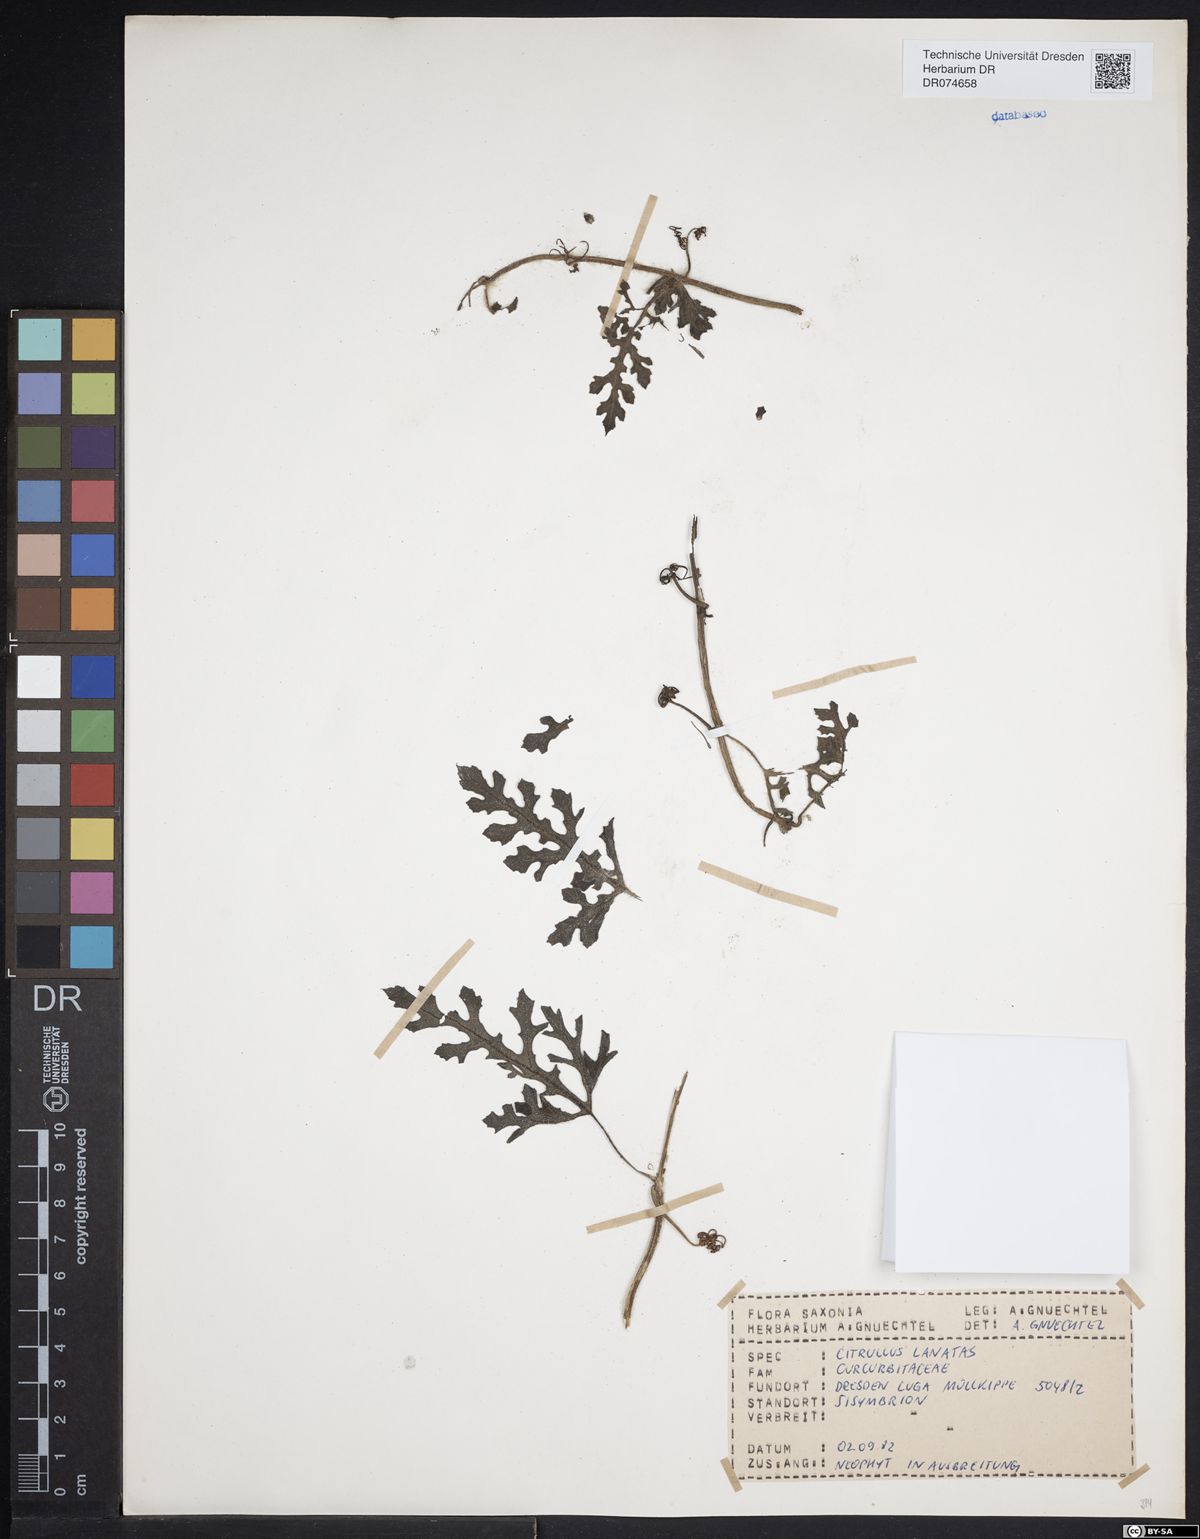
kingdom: Plantae
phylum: Tracheophyta
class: Magnoliopsida
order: Cucurbitales
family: Cucurbitaceae
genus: Citrullus
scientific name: Citrullus lanatus
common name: Watermelon
